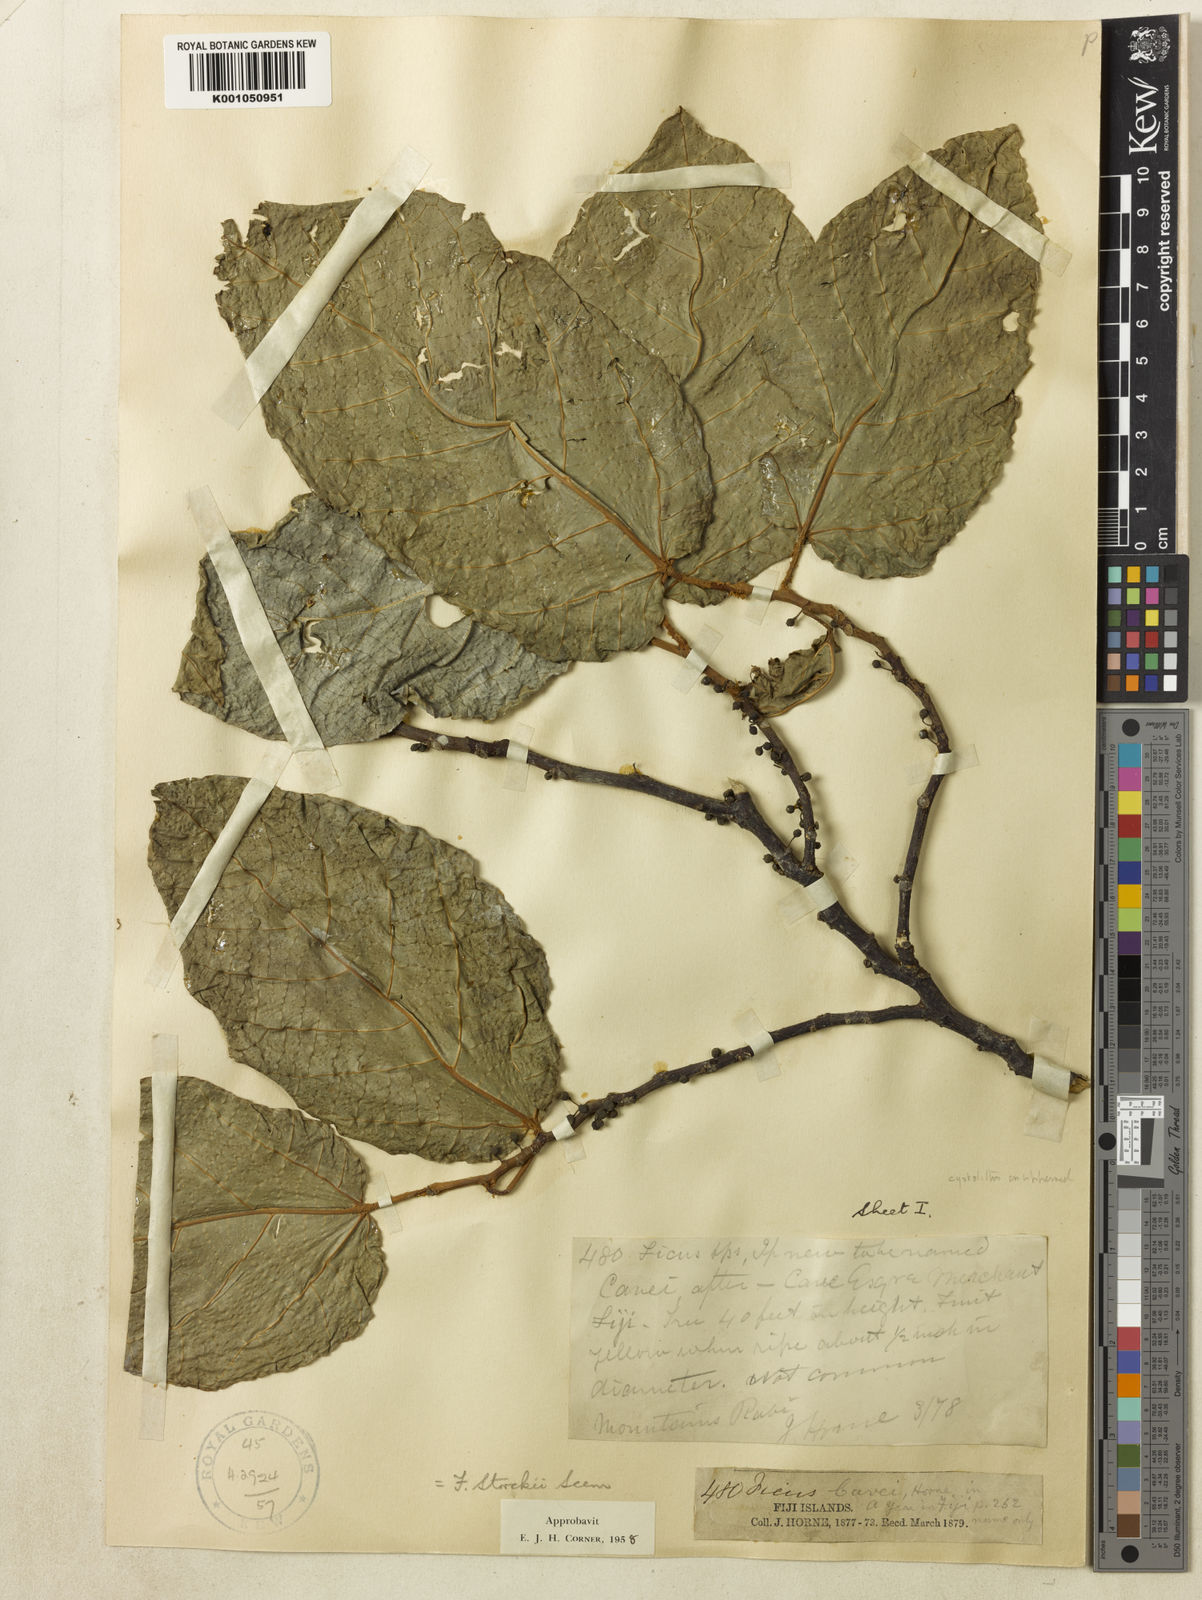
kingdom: Plantae
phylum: Tracheophyta
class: Magnoliopsida
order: Rosales
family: Moraceae
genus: Ficus
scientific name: Ficus storckii
